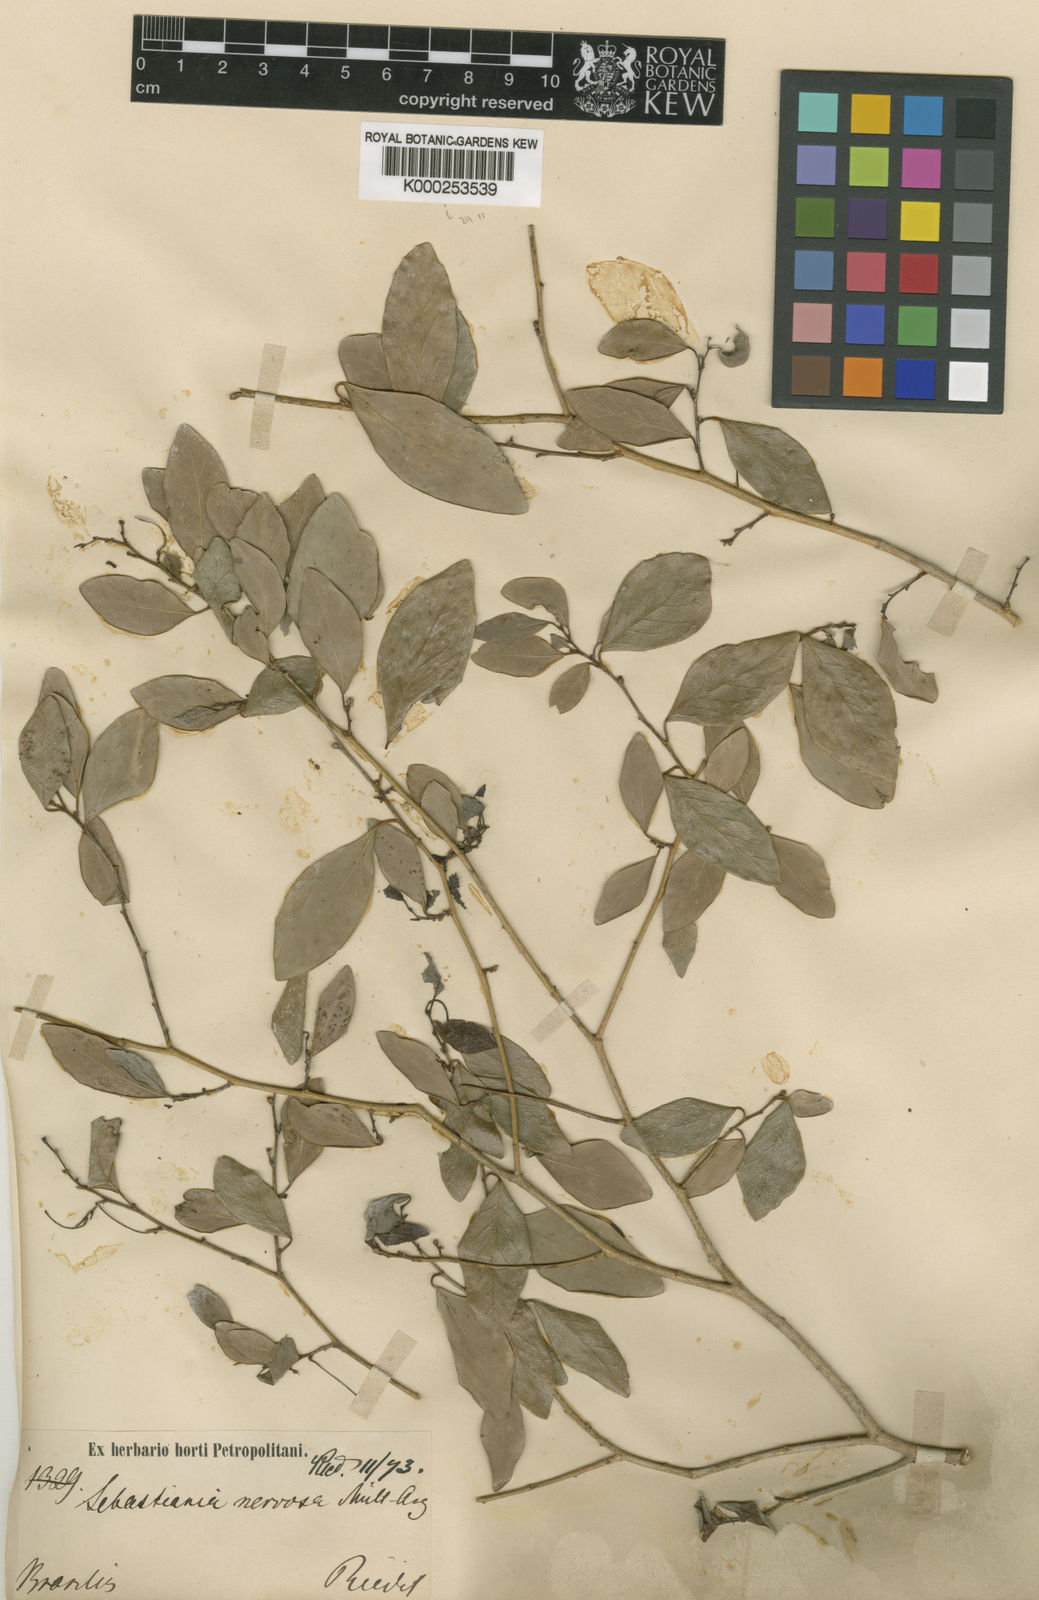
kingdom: Plantae
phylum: Tracheophyta
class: Magnoliopsida
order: Malpighiales
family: Euphorbiaceae
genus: Gymnanthes
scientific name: Gymnanthes
